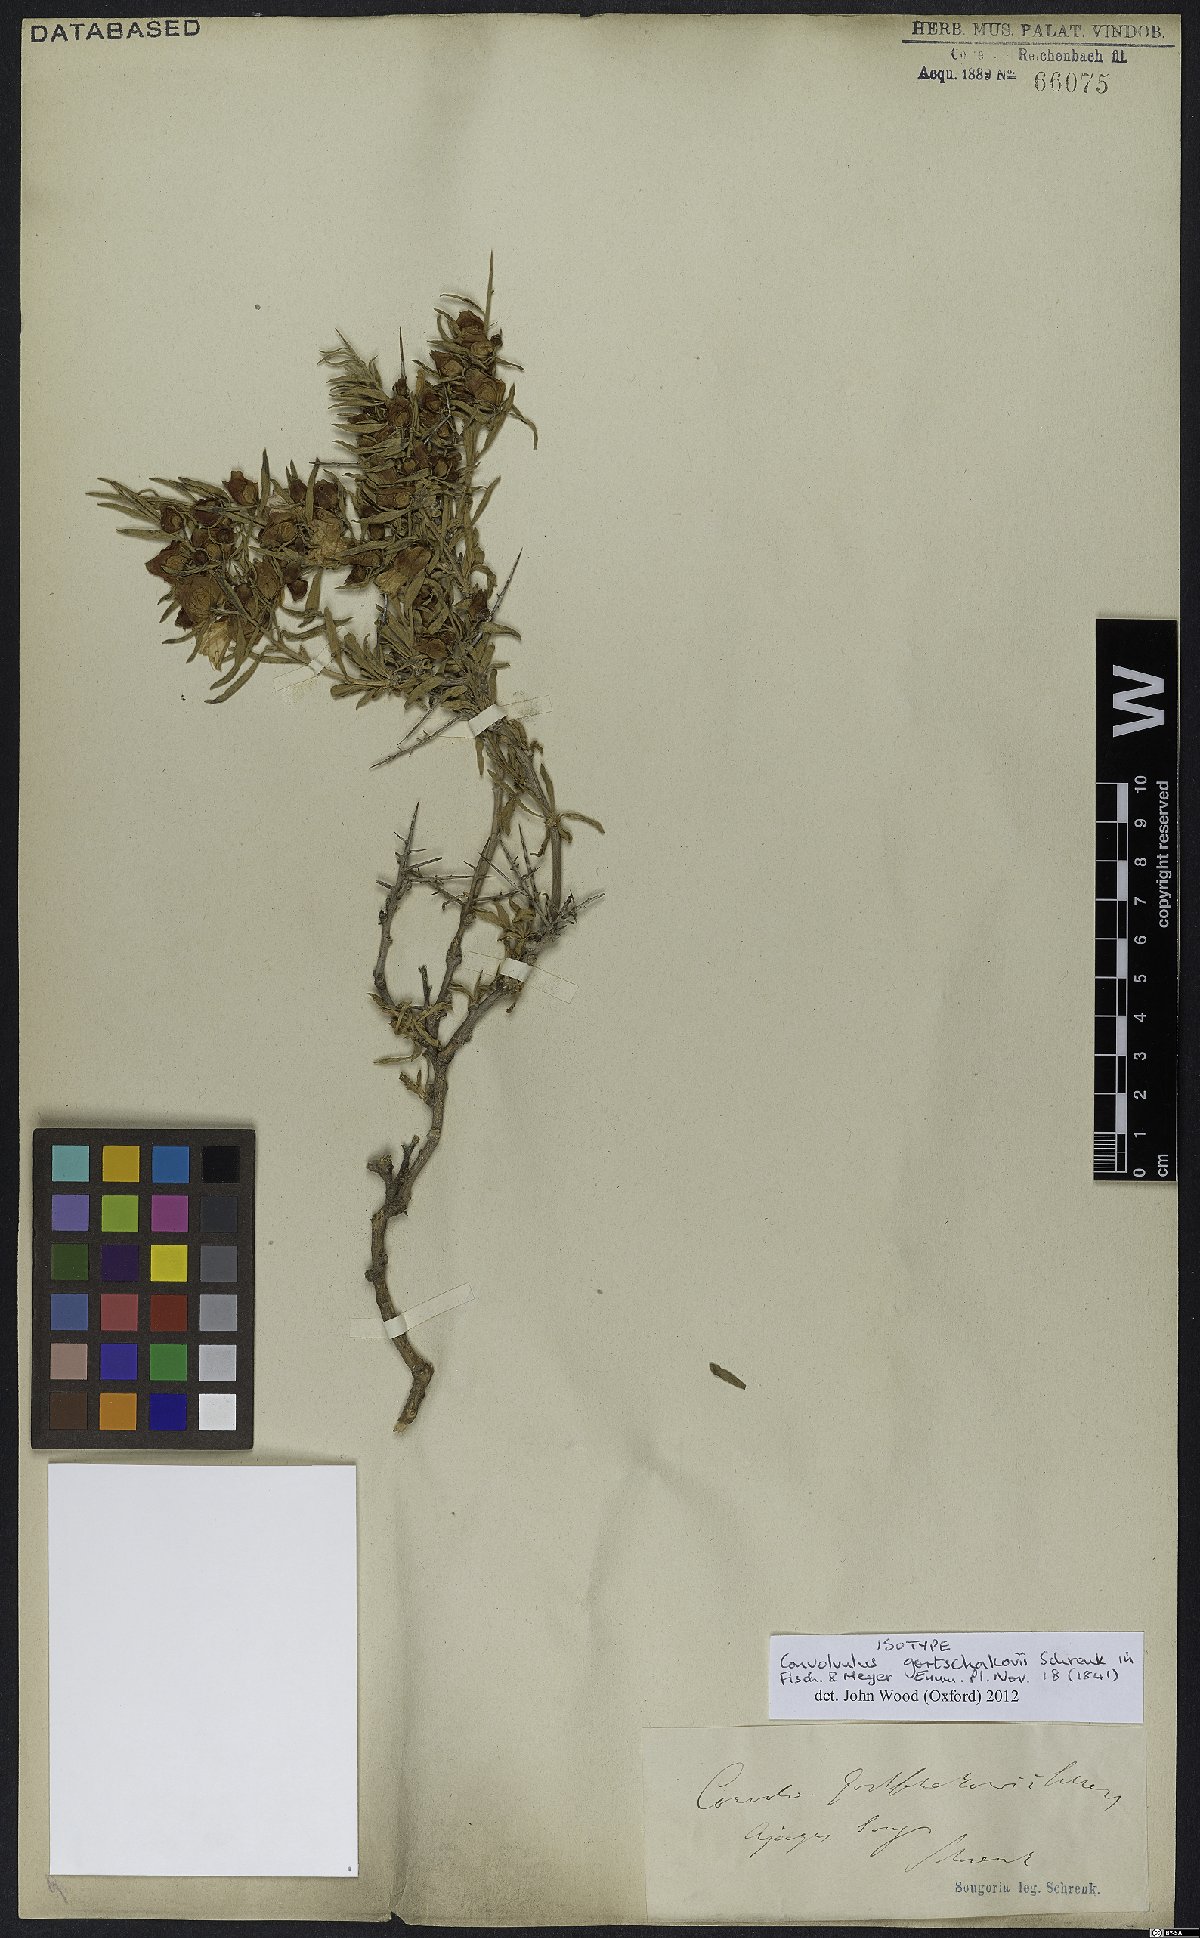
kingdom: Plantae
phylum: Tracheophyta
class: Magnoliopsida
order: Solanales
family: Convolvulaceae
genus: Convolvulus
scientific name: Convolvulus gortschakovii
